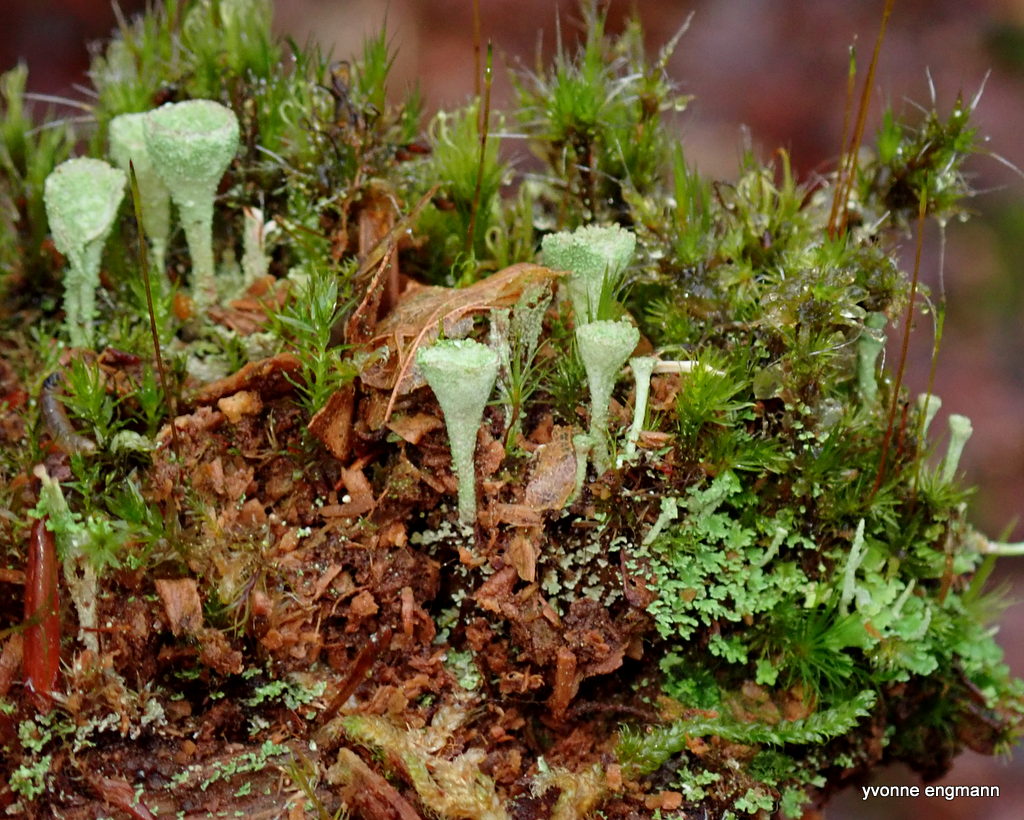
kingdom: Fungi
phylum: Ascomycota
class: Lecanoromycetes
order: Lecanorales
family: Cladoniaceae
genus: Cladonia
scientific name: Cladonia
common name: brungrøn bægerlav
